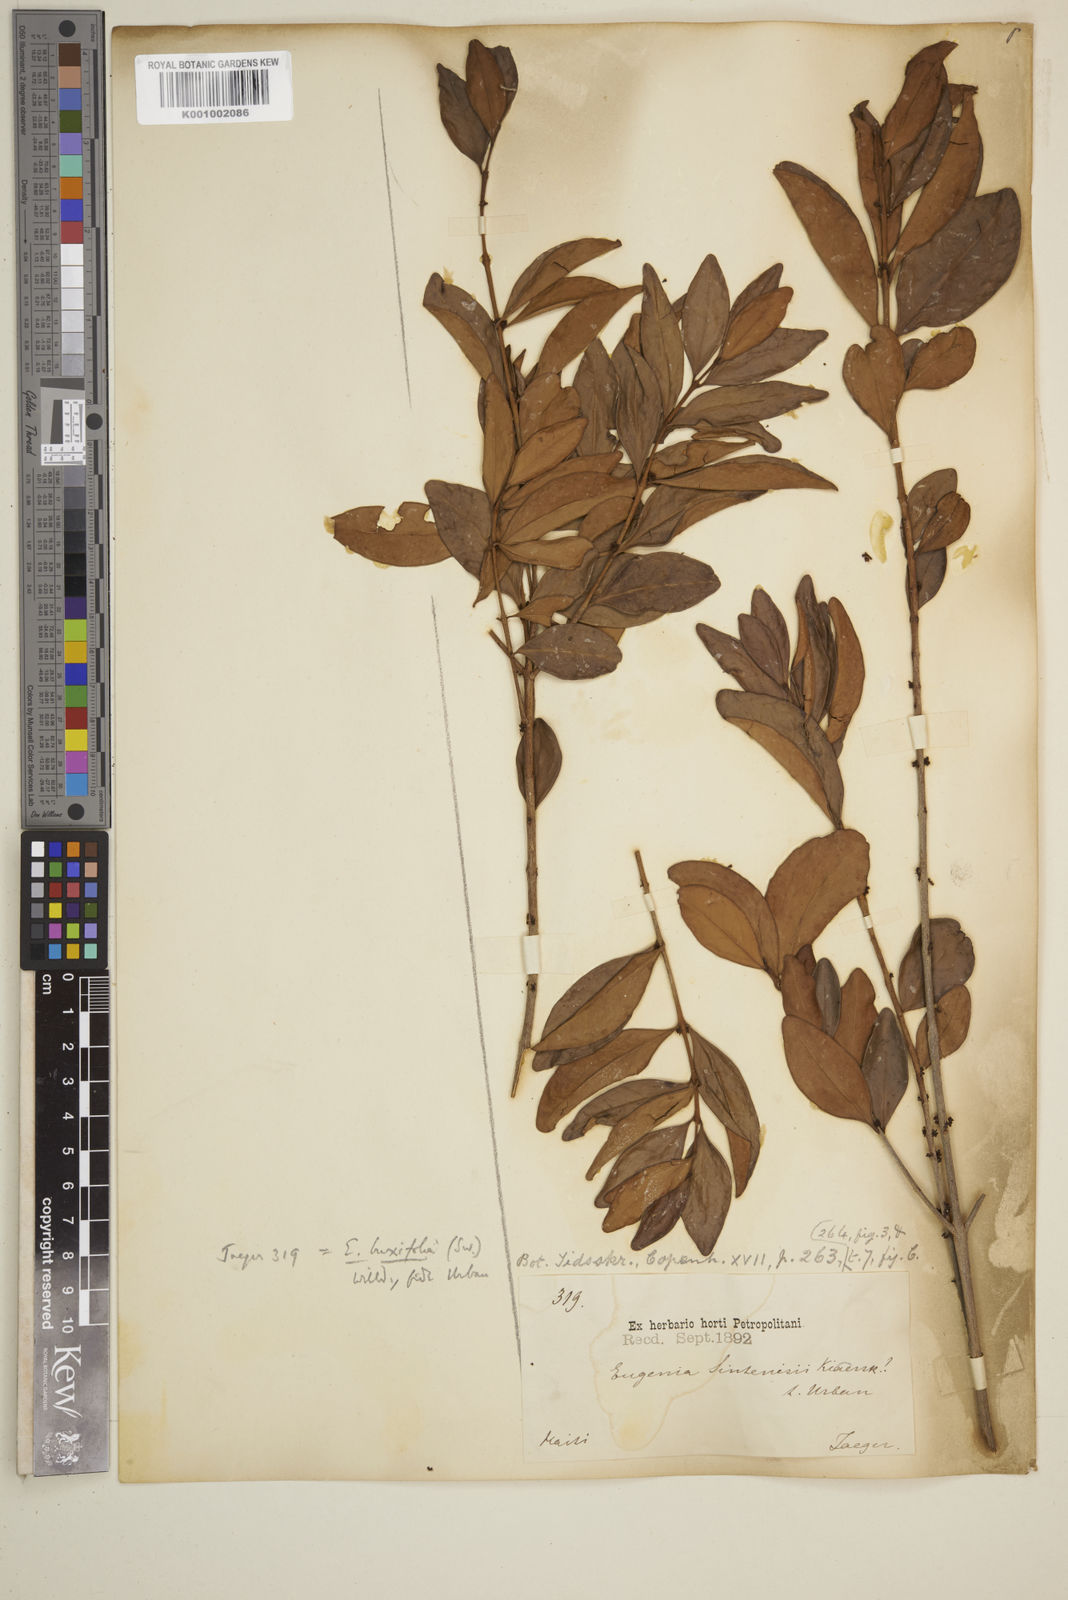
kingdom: Plantae
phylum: Tracheophyta
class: Magnoliopsida
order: Myrtales
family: Myrtaceae
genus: Eugenia
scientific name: Eugenia buxifolia
